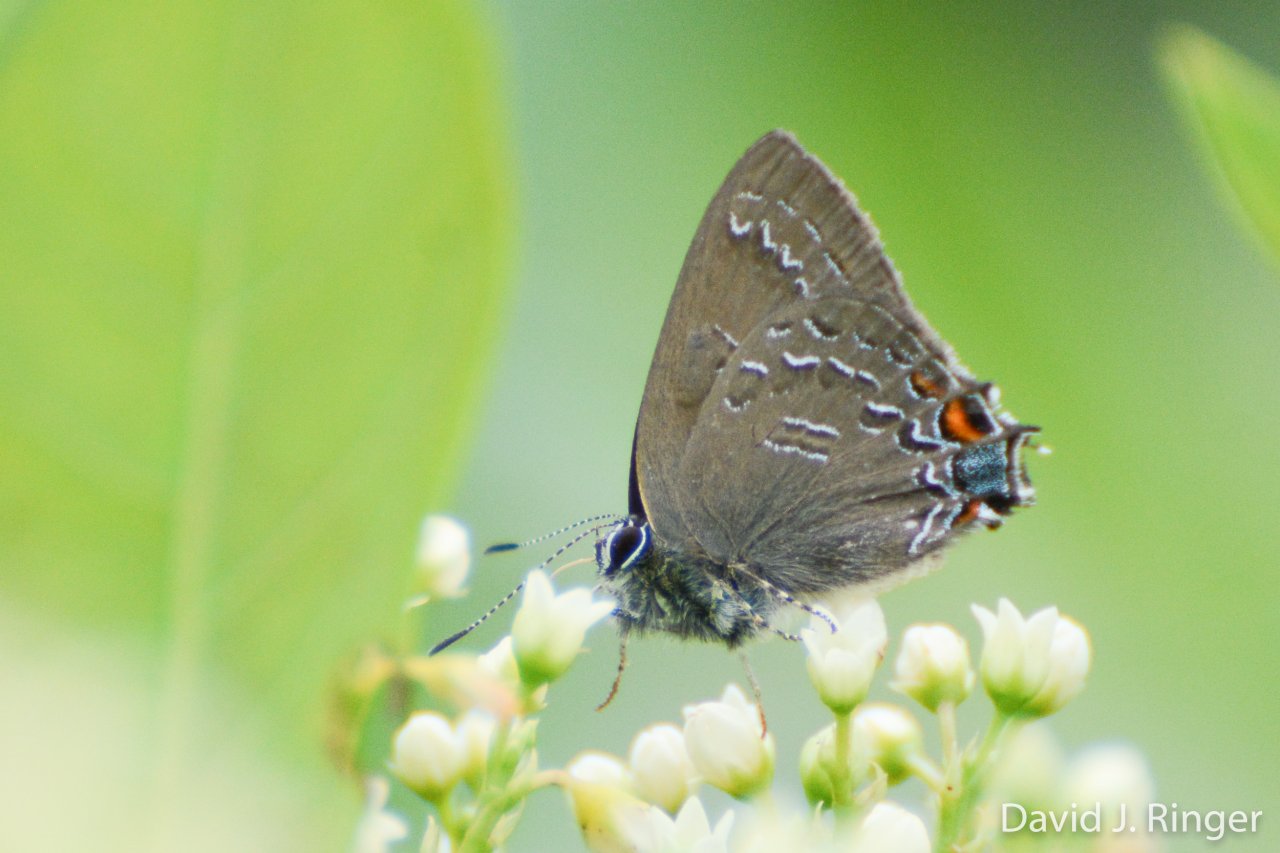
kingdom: Animalia
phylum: Arthropoda
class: Insecta
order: Lepidoptera
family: Lycaenidae
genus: Satyrium
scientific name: Satyrium calanus
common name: Banded Hairstreak
